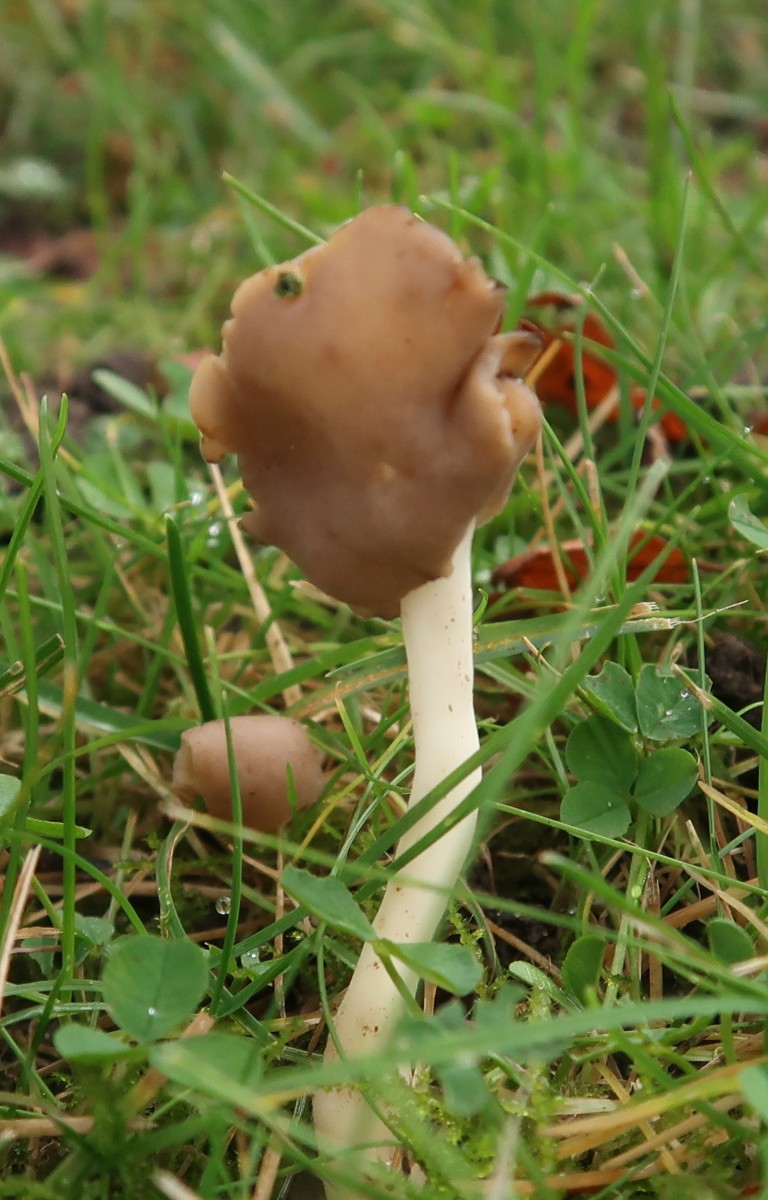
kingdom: Fungi
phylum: Ascomycota
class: Pezizomycetes
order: Pezizales
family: Helvellaceae
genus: Helvella
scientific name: Helvella elastica
